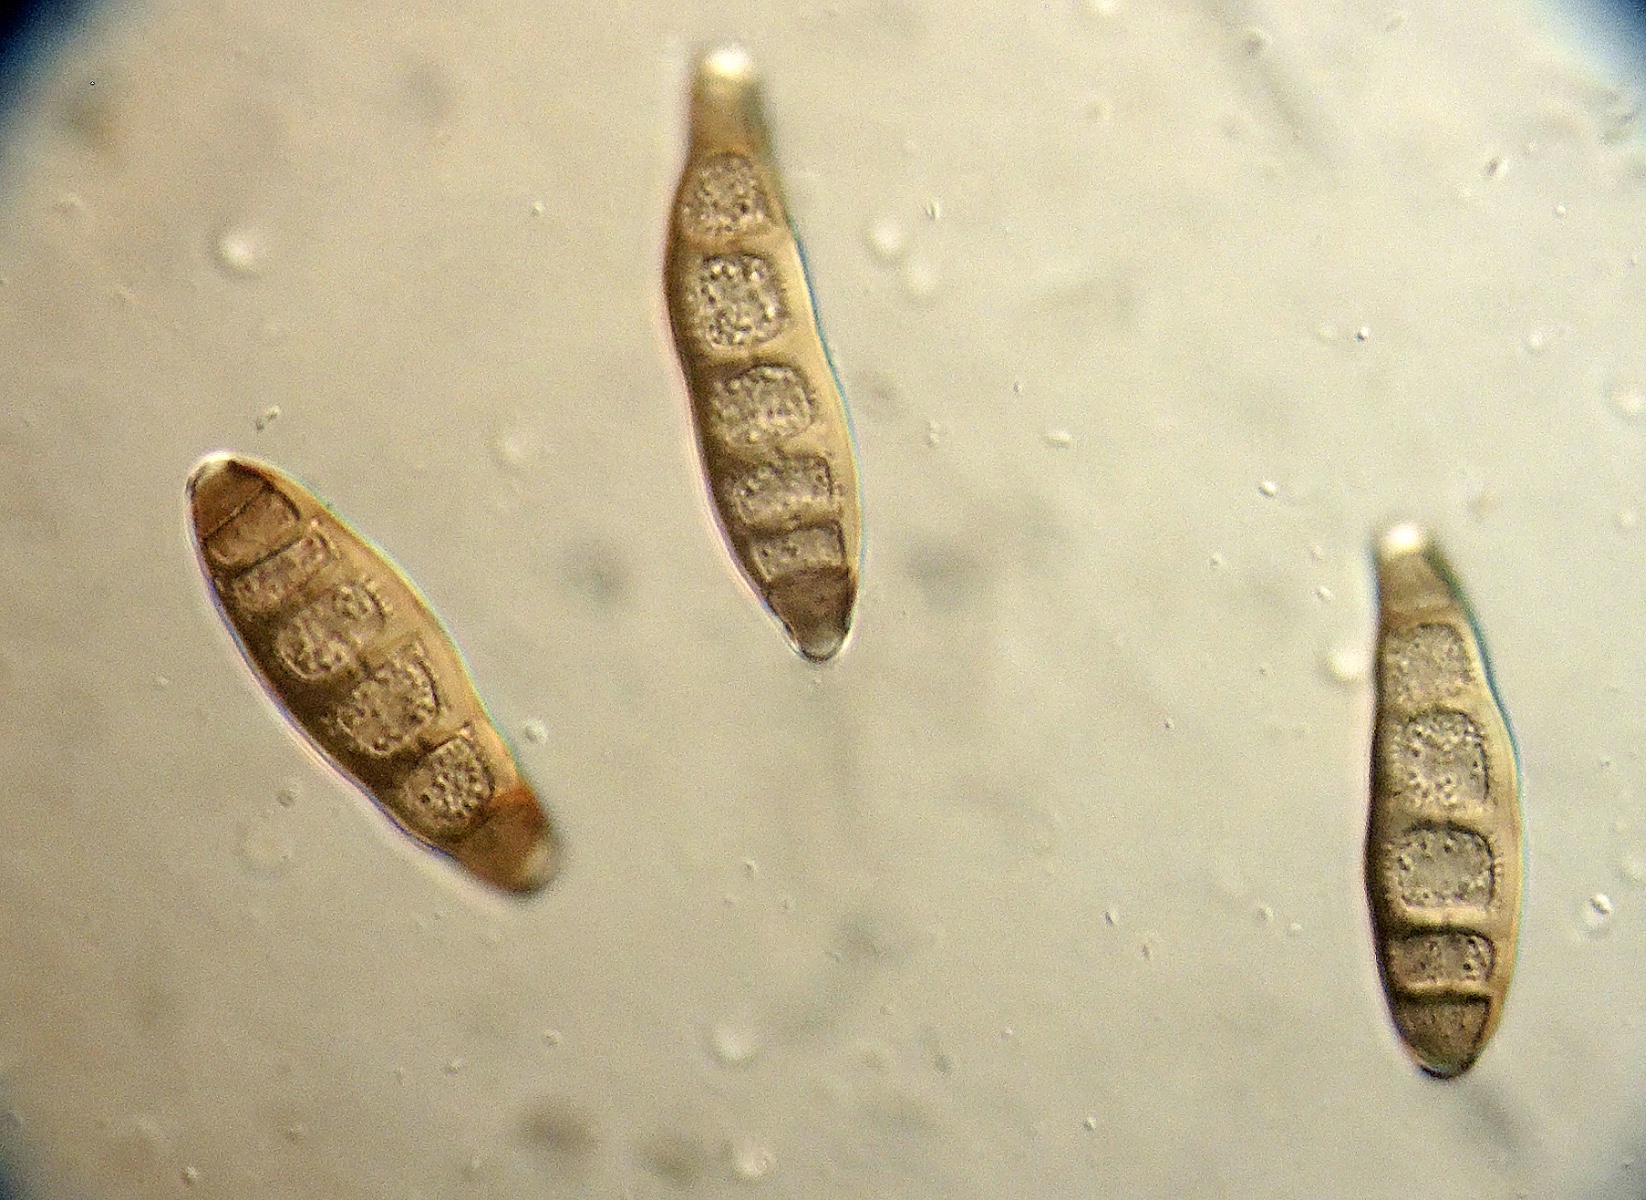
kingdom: Fungi
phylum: Ascomycota
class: Sordariomycetes
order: Diaporthales
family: Melanconidaceae
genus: Melanconis
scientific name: Melanconis modonia
